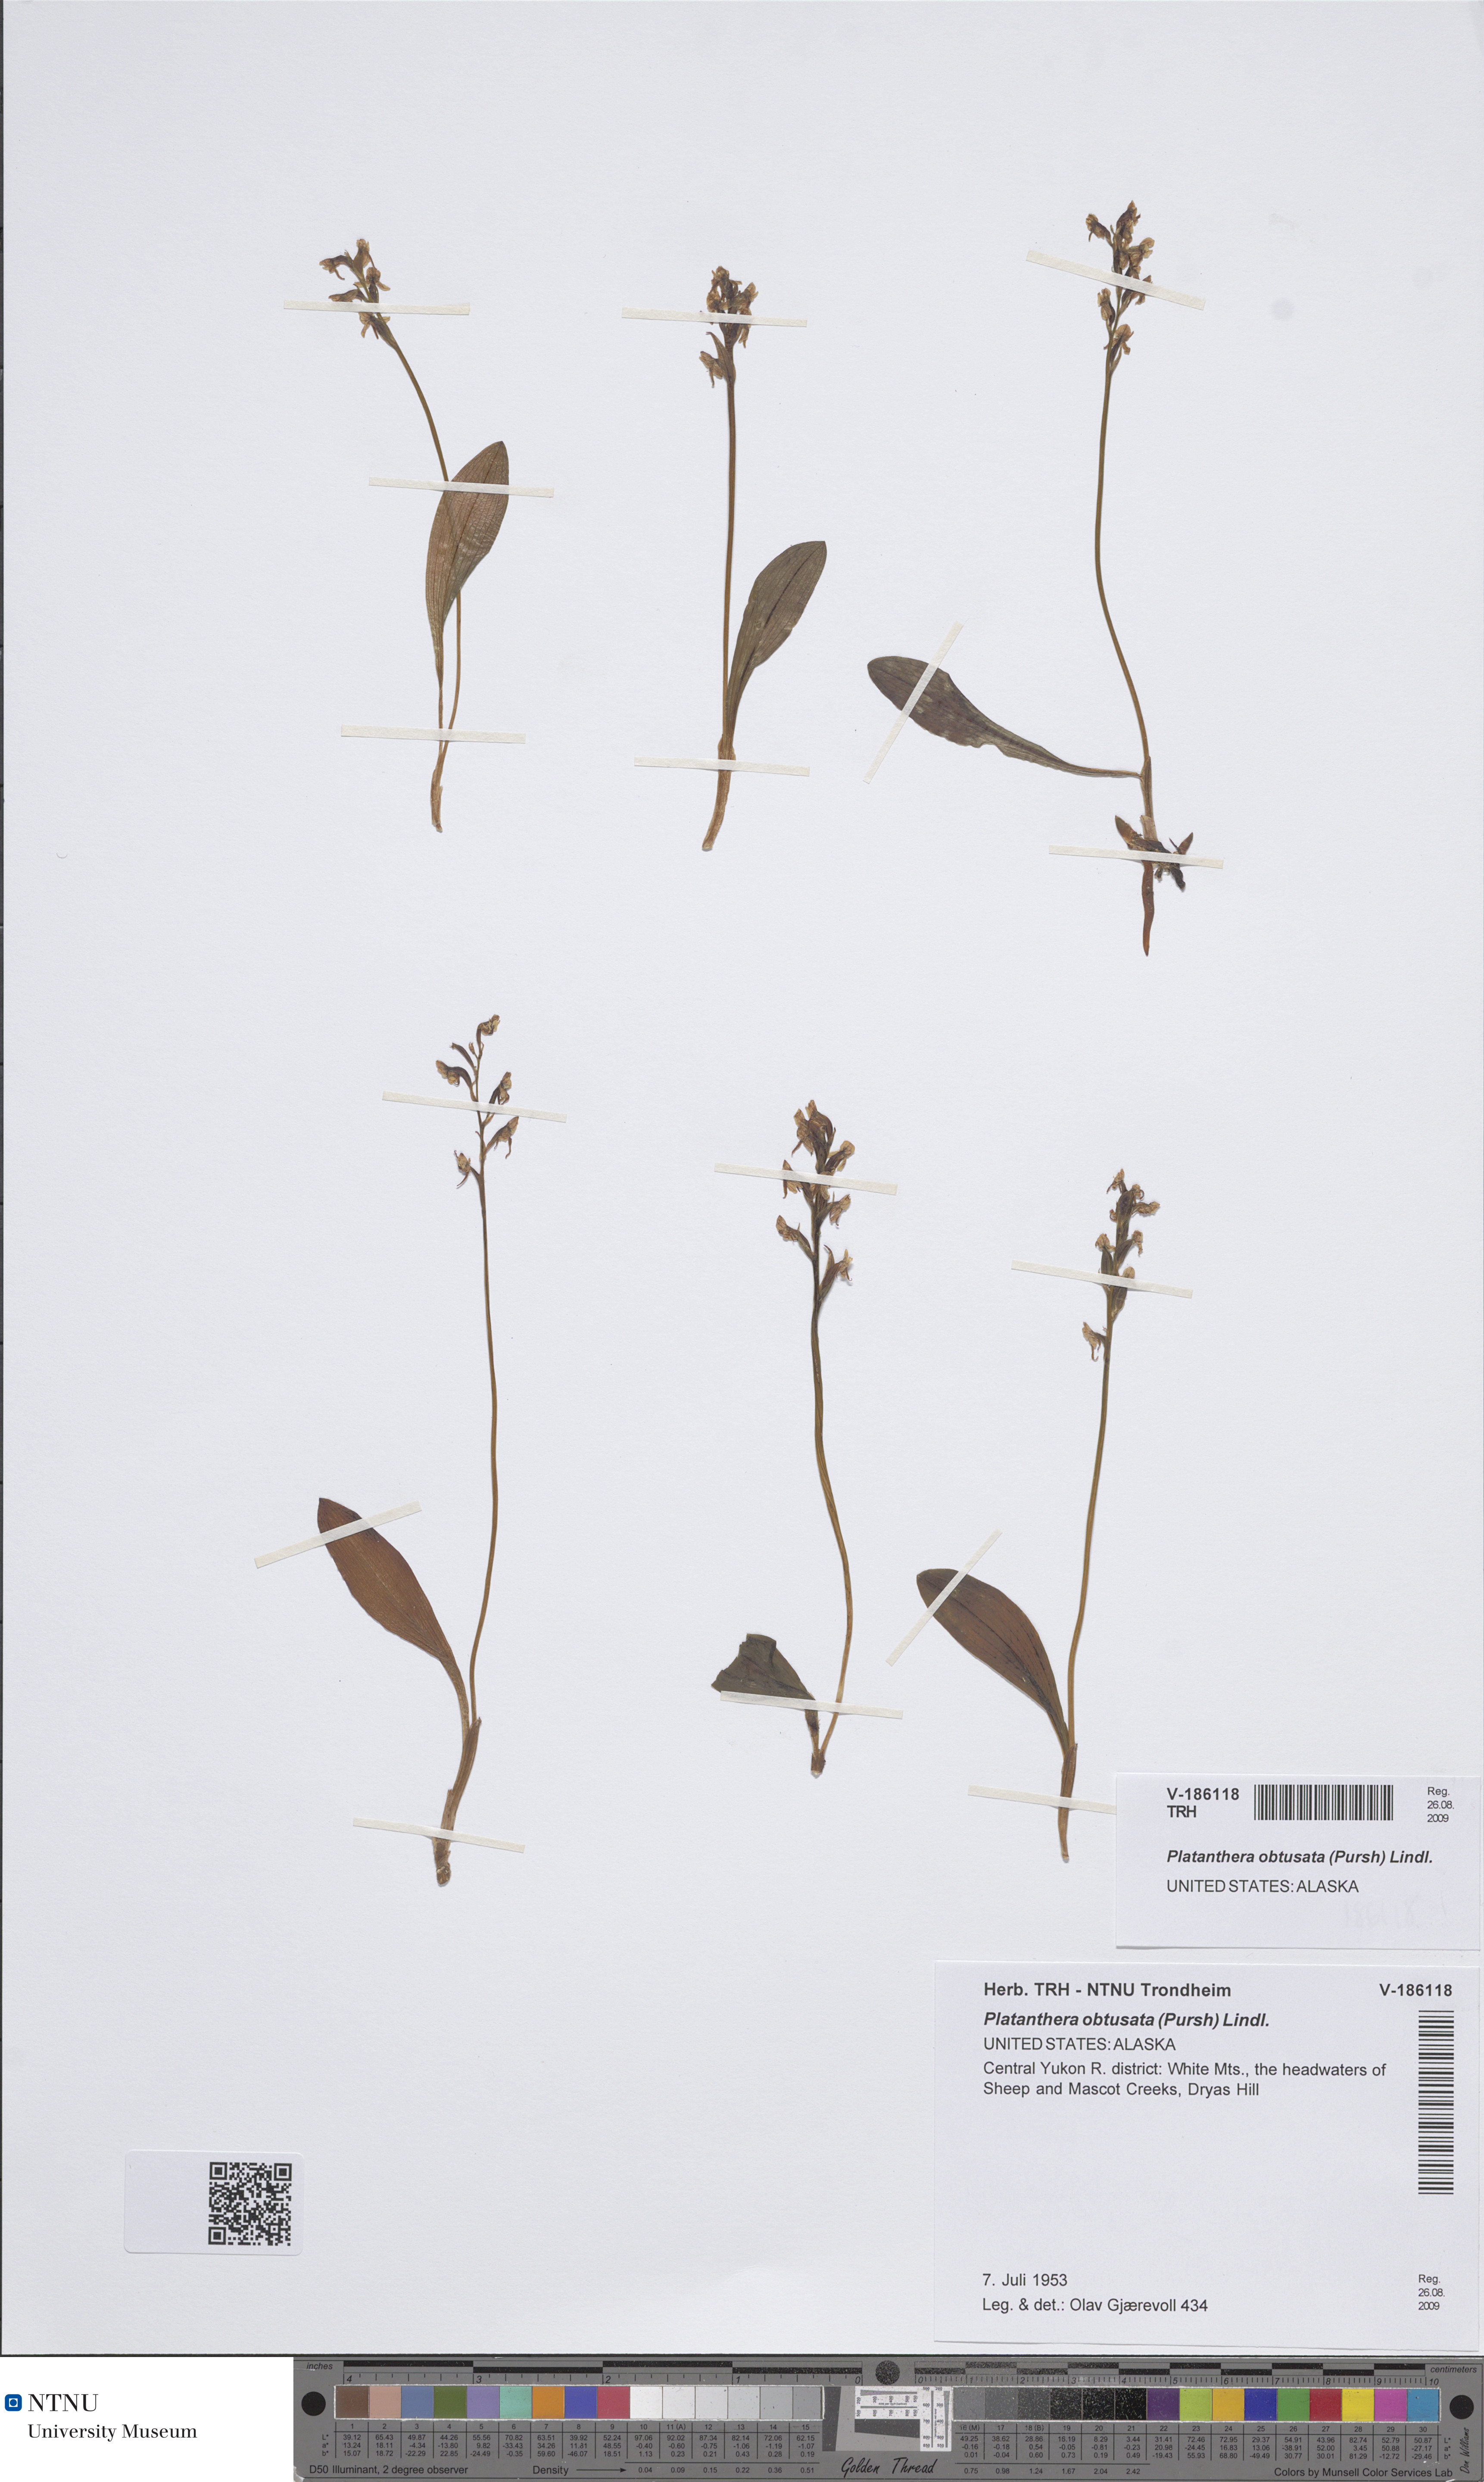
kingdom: Plantae
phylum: Tracheophyta
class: Liliopsida
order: Asparagales
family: Orchidaceae
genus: Platanthera
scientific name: Platanthera obtusata
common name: Blunt bog orchid
